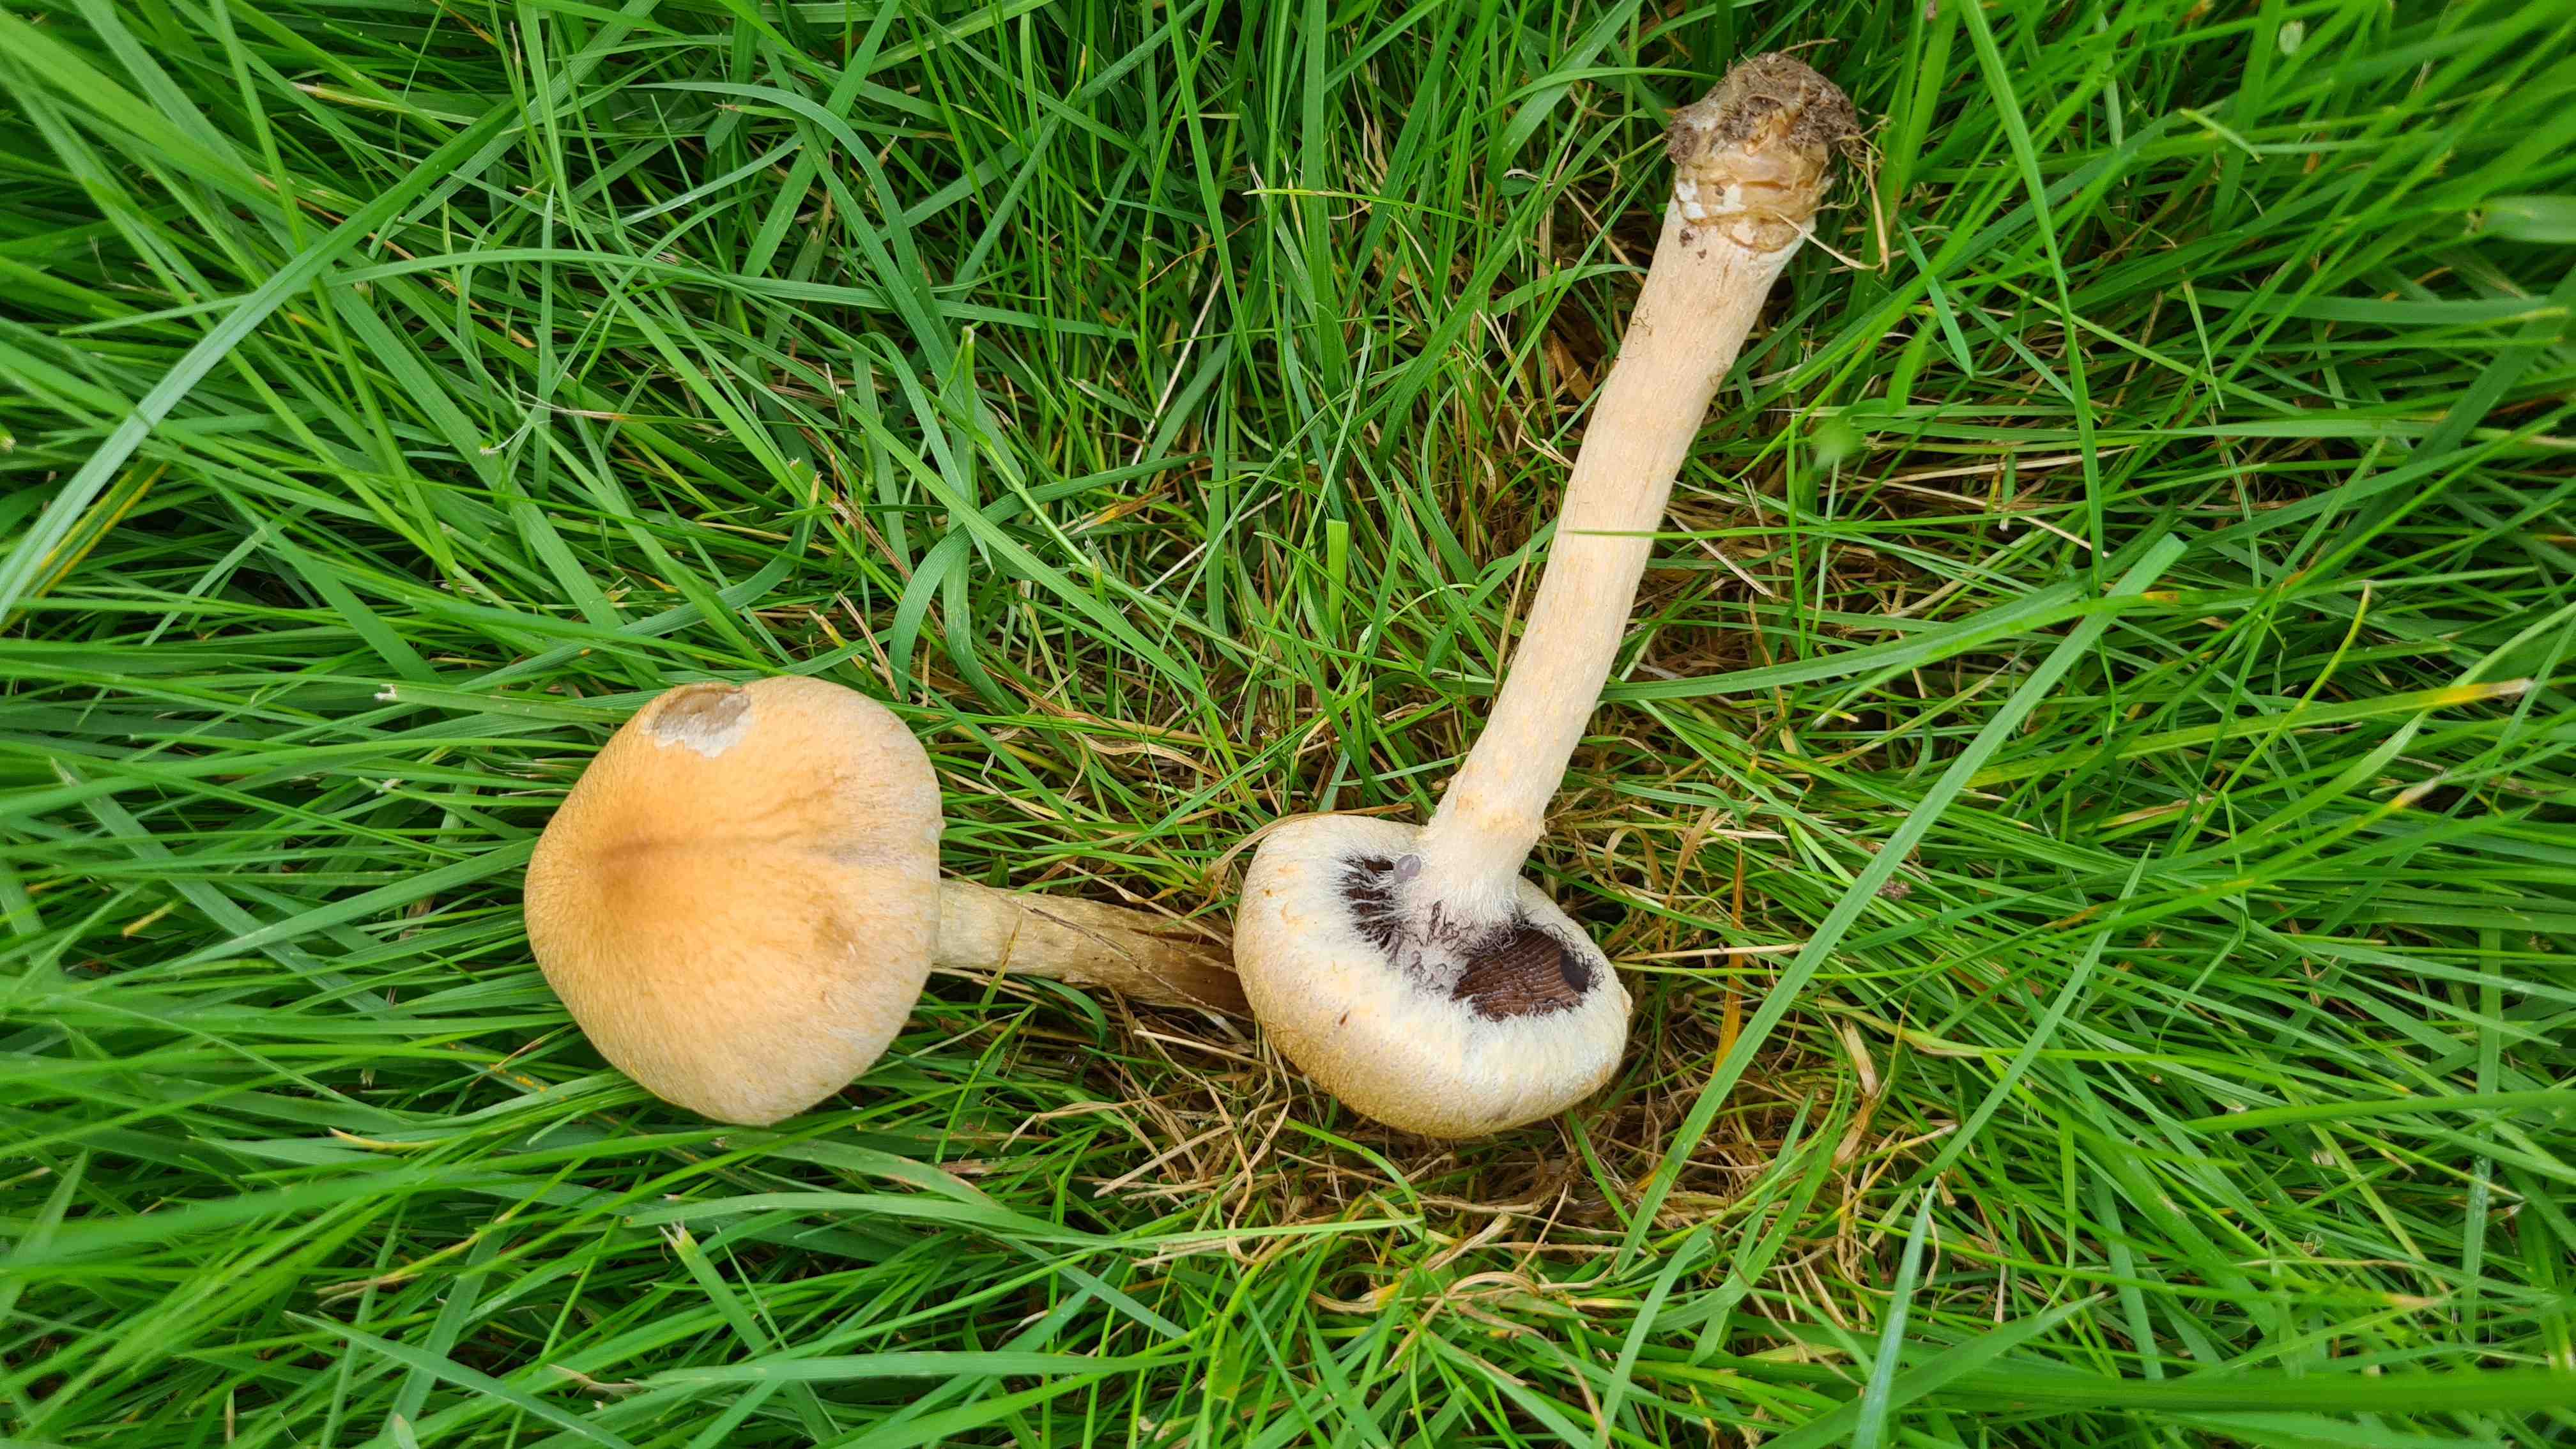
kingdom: Fungi
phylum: Basidiomycota
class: Agaricomycetes
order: Agaricales
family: Psathyrellaceae
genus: Lacrymaria
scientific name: Lacrymaria lacrymabunda
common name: grædende mørkhat
